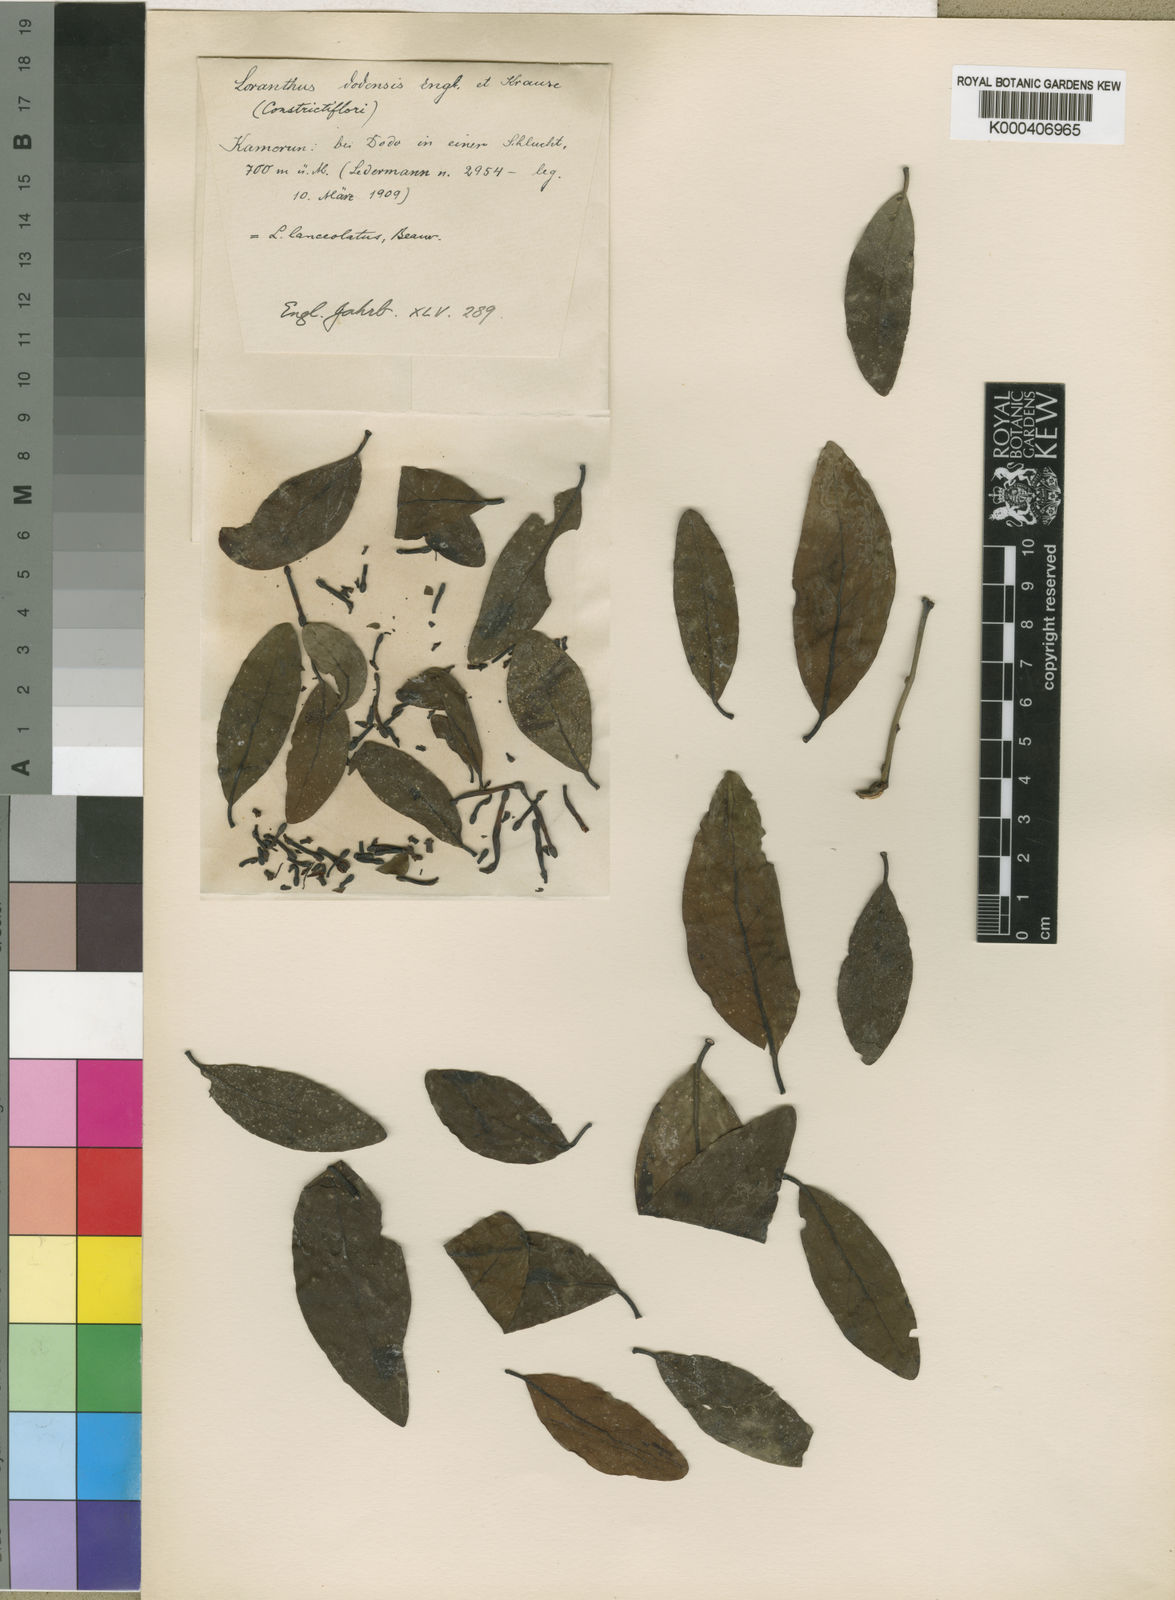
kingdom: Plantae
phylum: Tracheophyta
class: Magnoliopsida
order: Santalales
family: Loranthaceae
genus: Tapinanthus
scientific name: Tapinanthus
